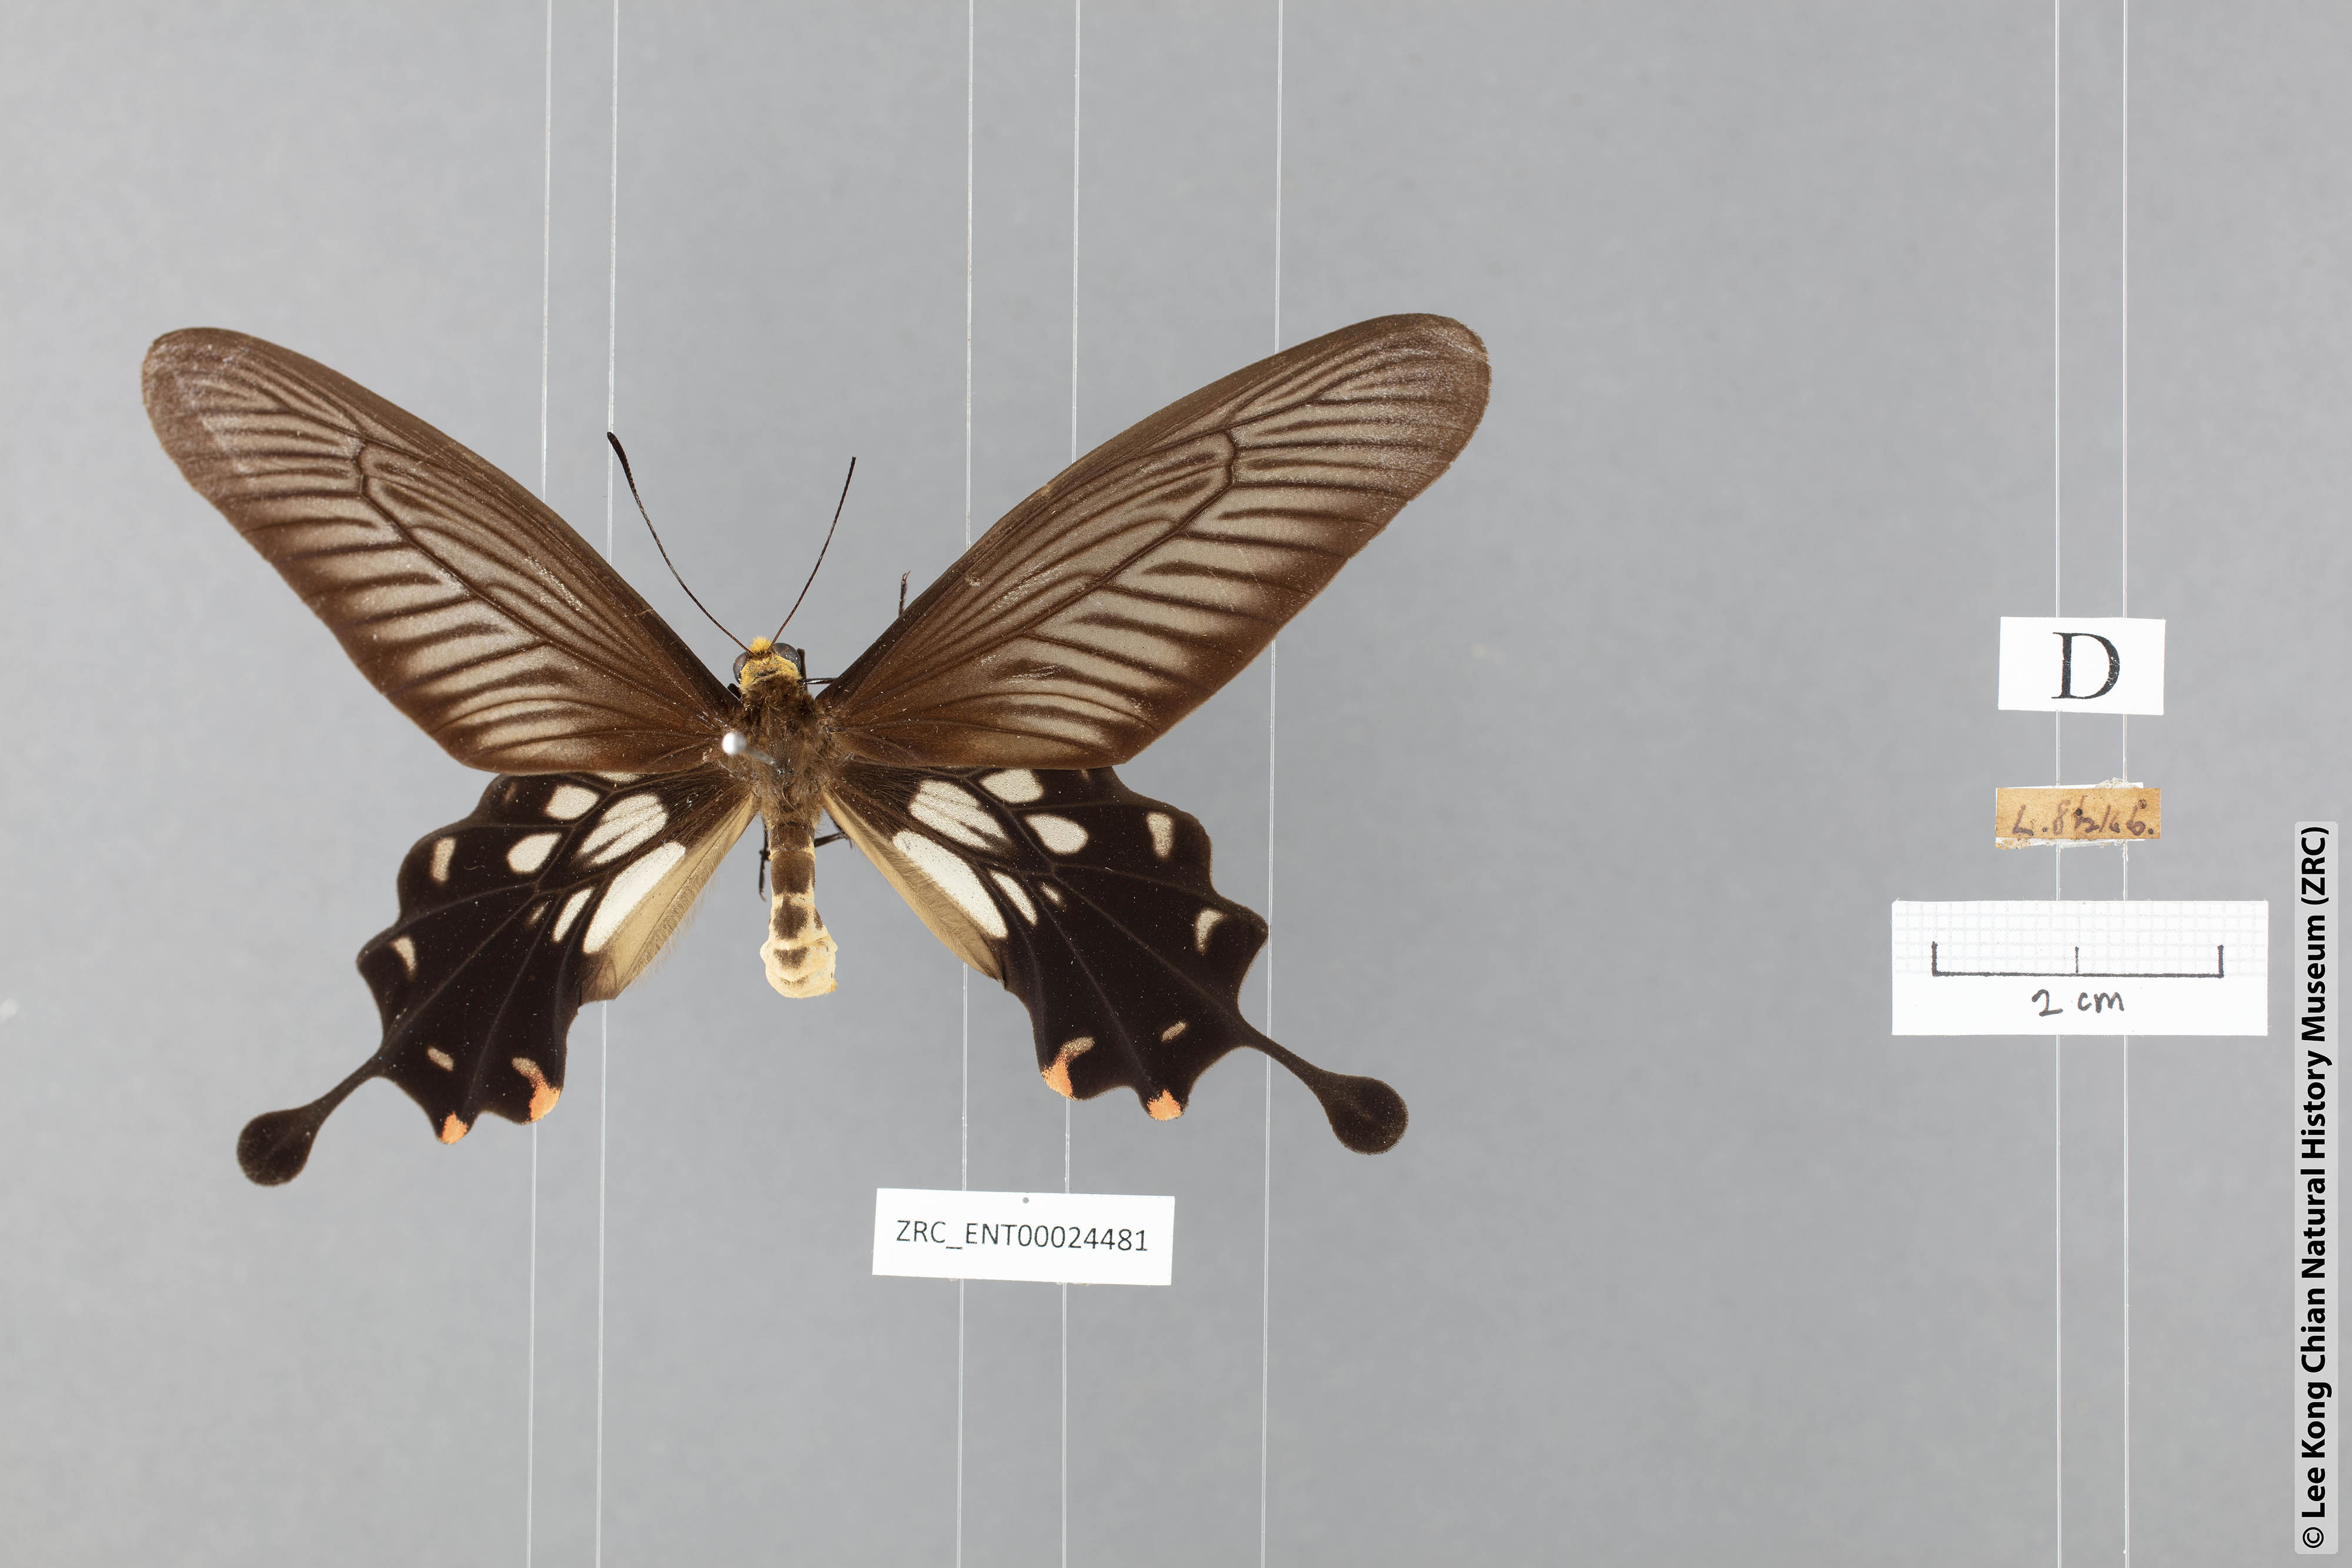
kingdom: Animalia
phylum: Arthropoda
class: Insecta
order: Lepidoptera
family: Papilionidae
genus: Losaria
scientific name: Losaria coon
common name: Common clubtail
